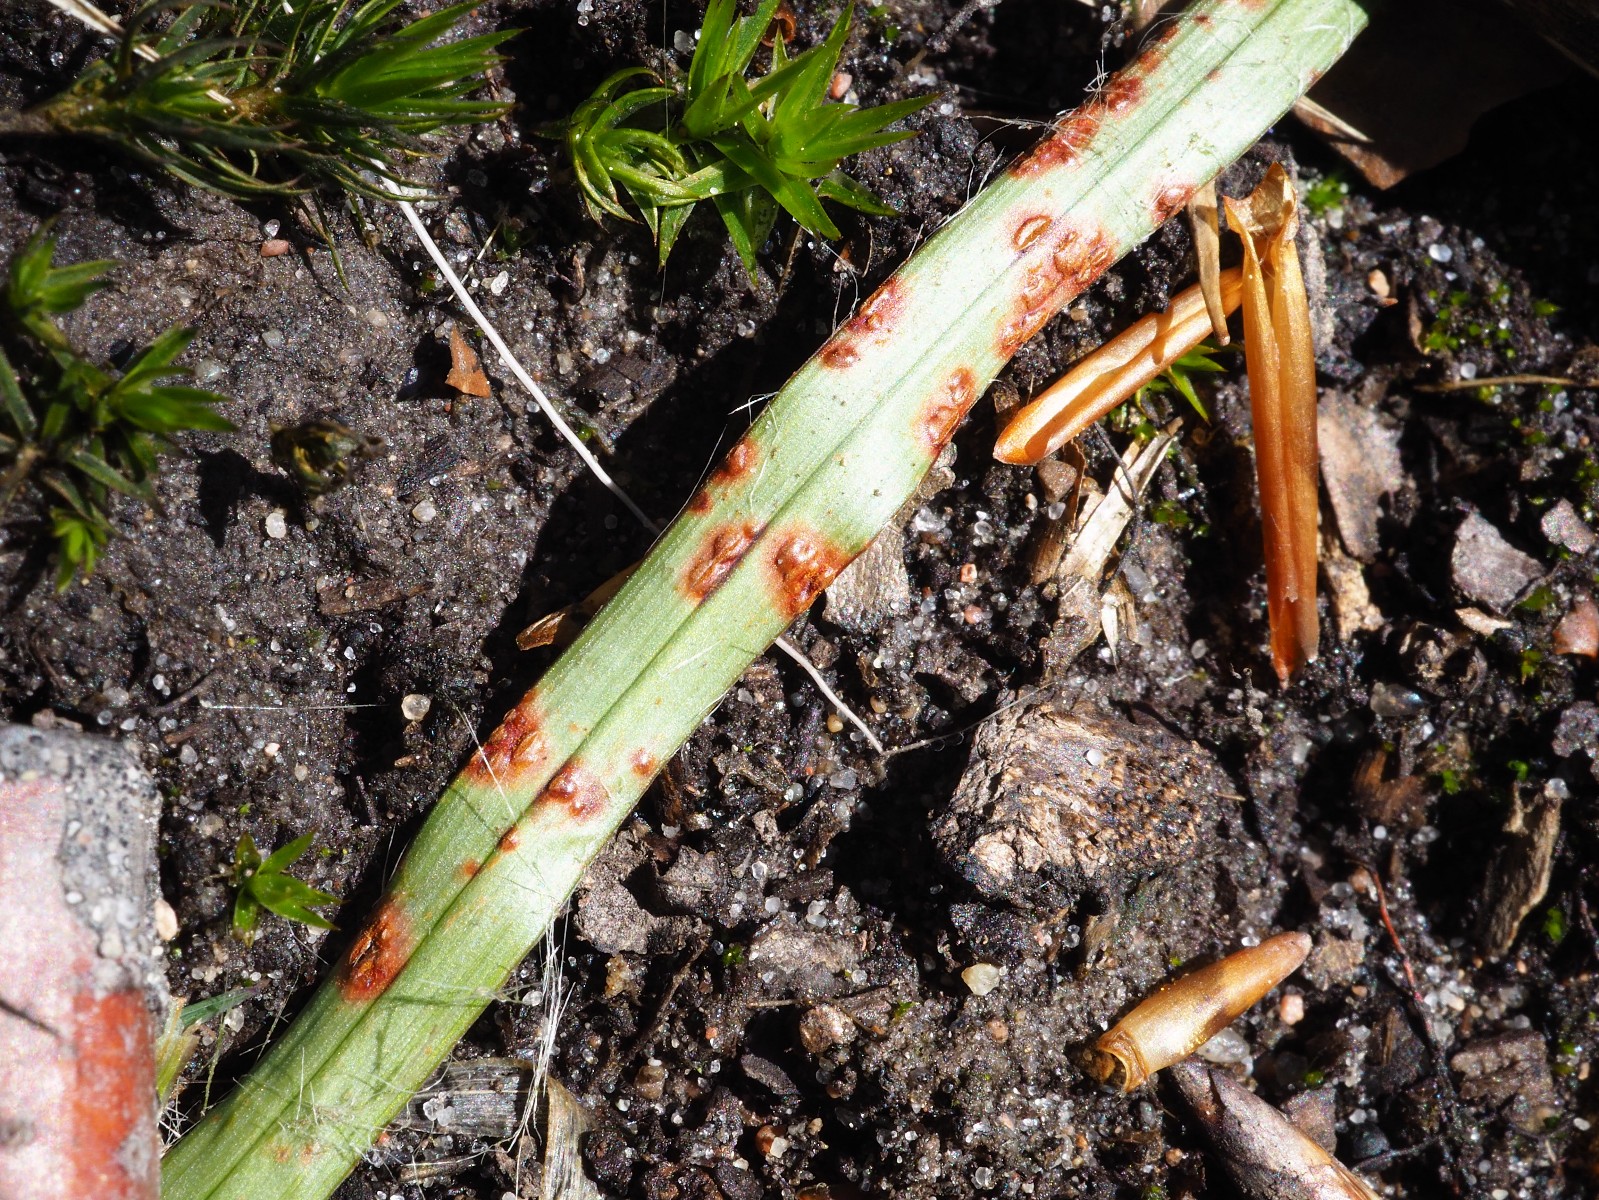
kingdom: Fungi
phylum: Basidiomycota
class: Pucciniomycetes
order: Pucciniales
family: Pucciniaceae
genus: Puccinia
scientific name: Puccinia obscura
